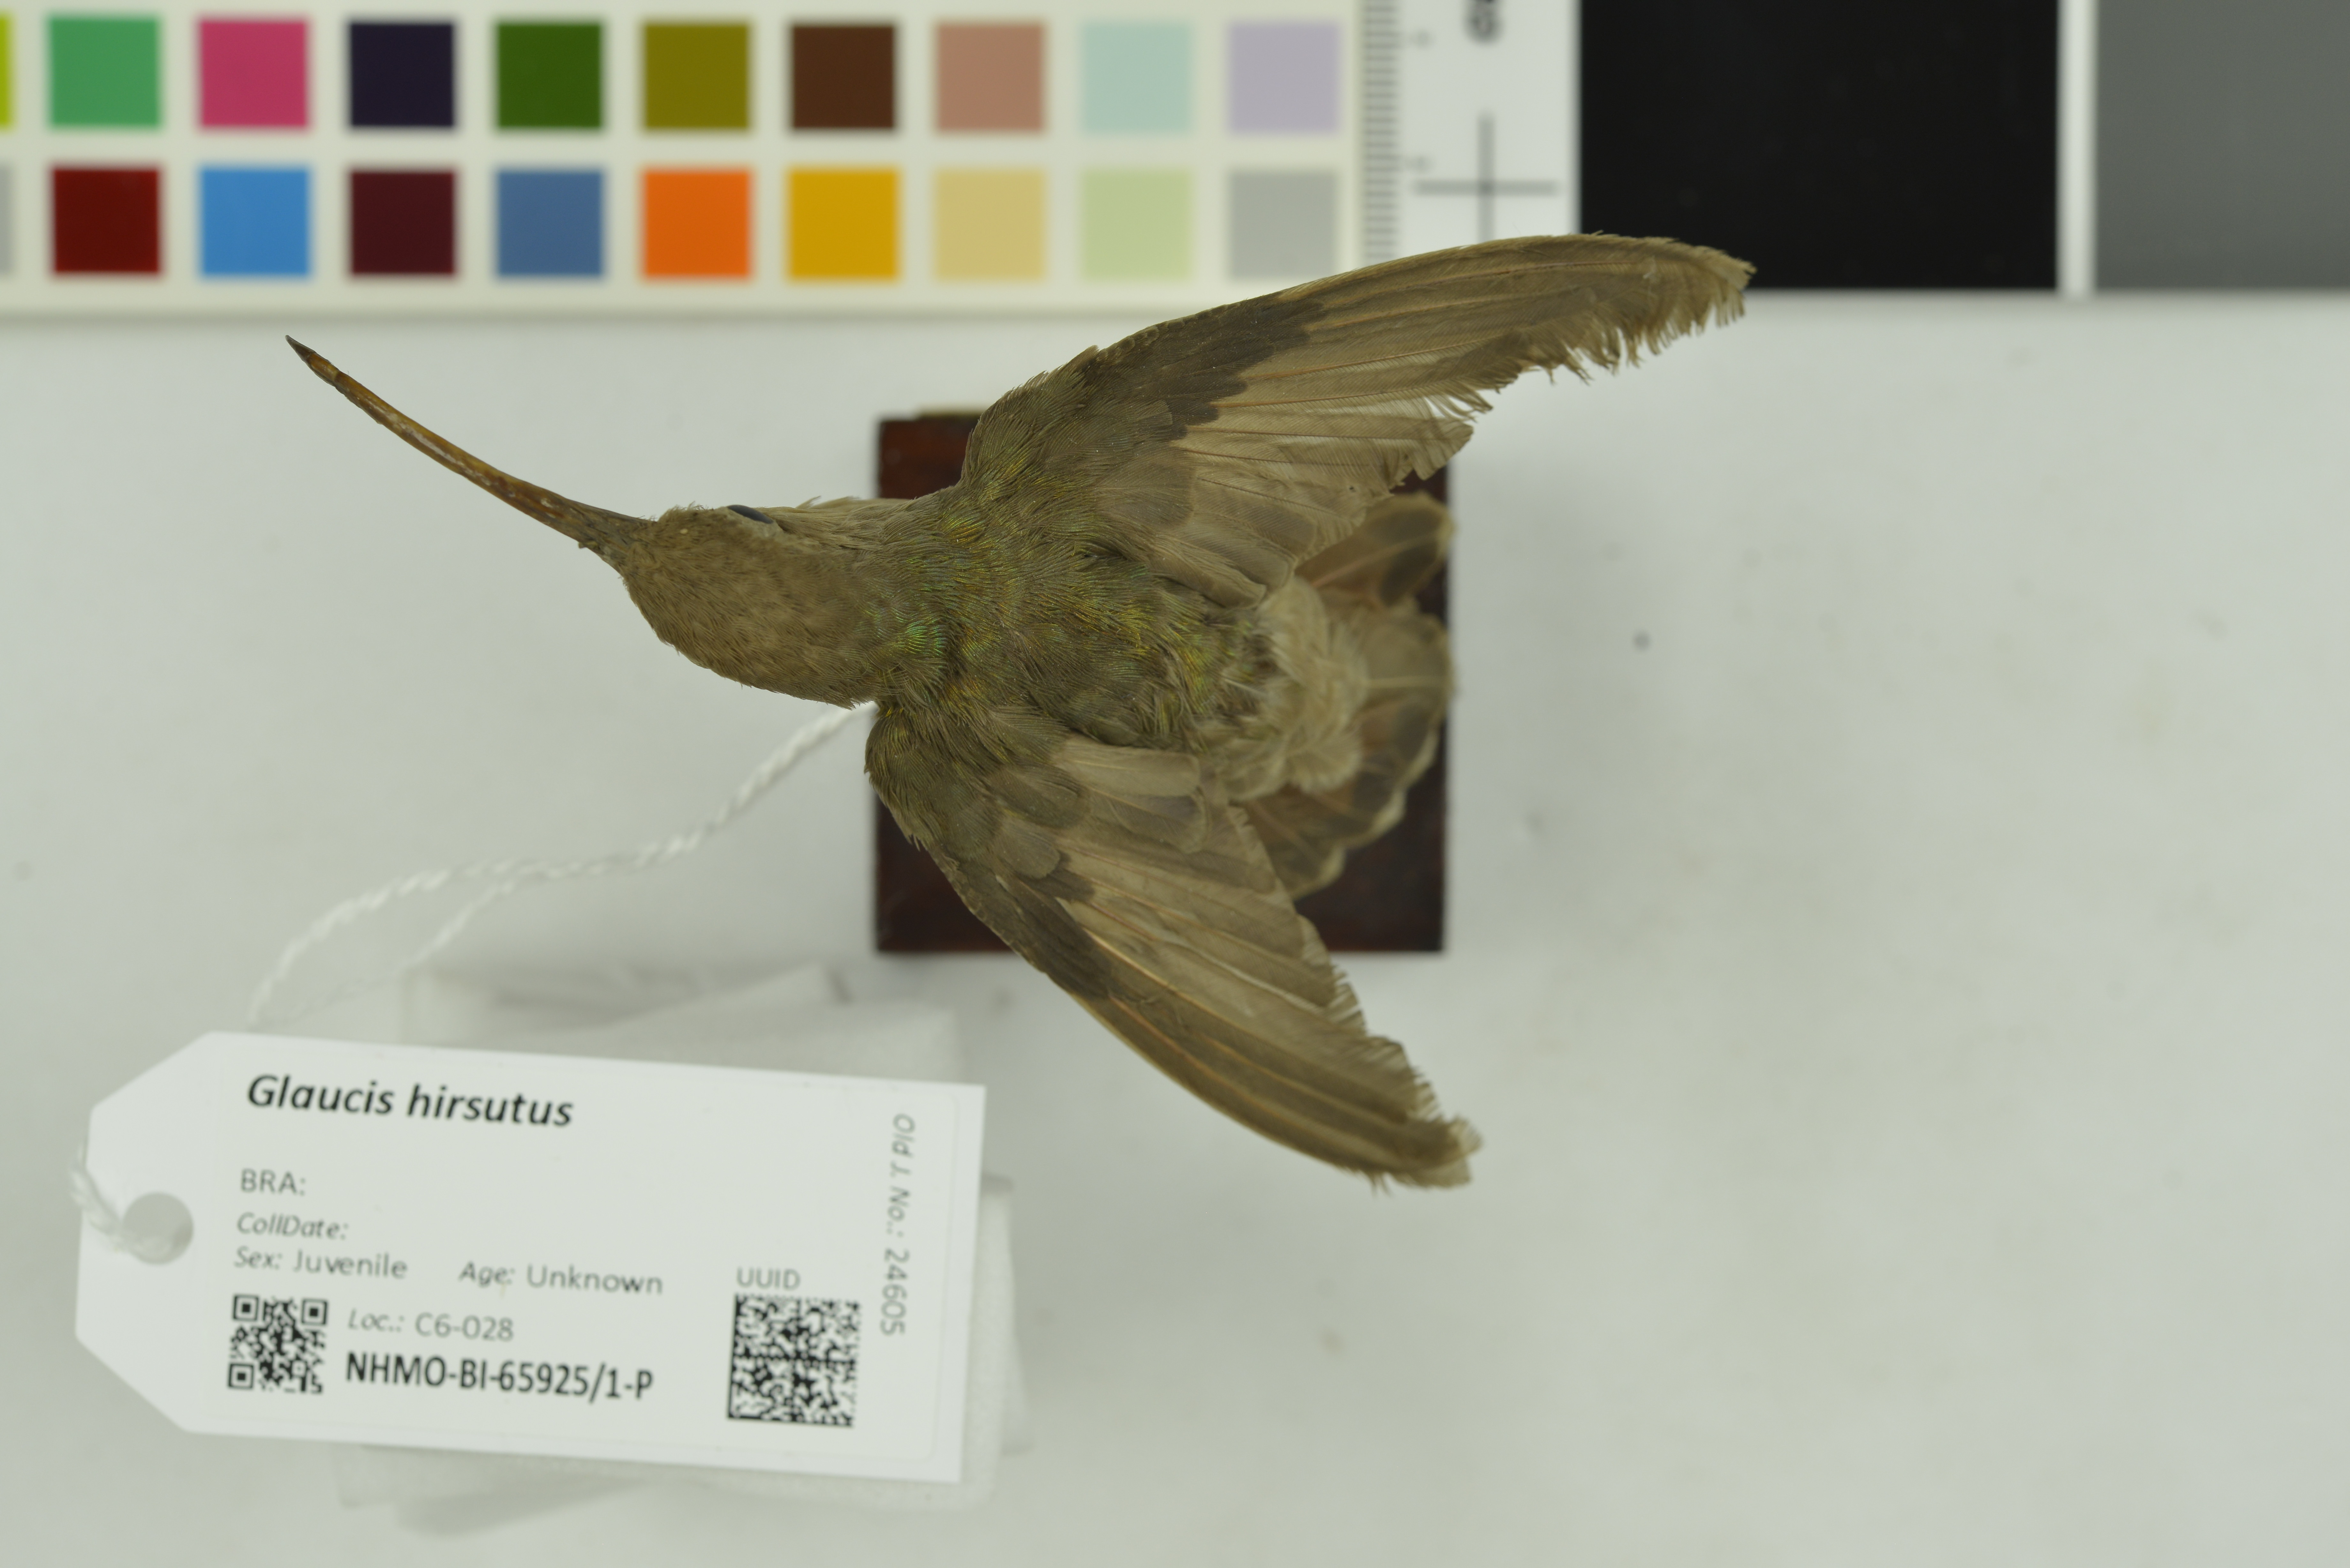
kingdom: Animalia
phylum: Chordata
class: Aves
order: Apodiformes
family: Trochilidae
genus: Glaucis
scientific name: Glaucis hirsutus
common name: Rufous-breasted hermit
